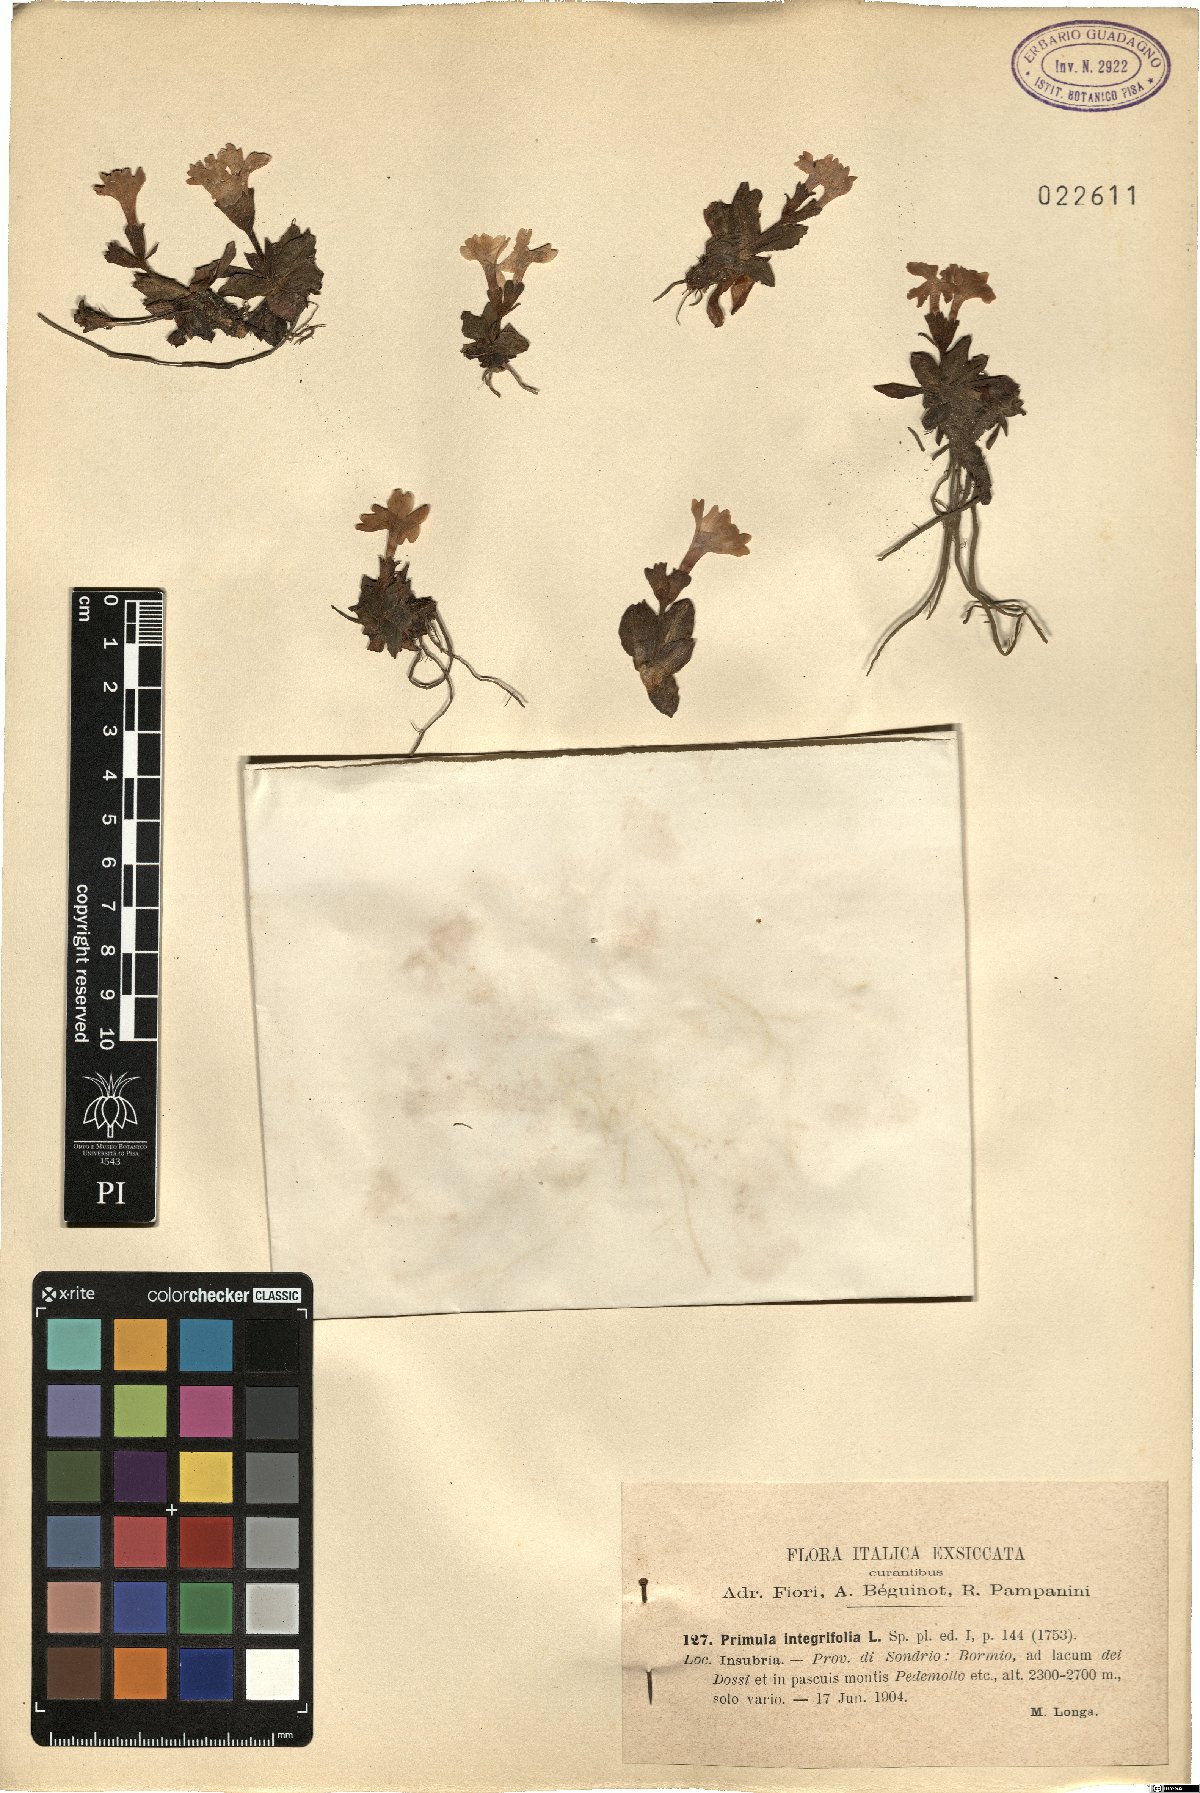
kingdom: Plantae
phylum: Tracheophyta
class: Magnoliopsida
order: Ericales
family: Primulaceae
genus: Primula
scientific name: Primula integrifolia
